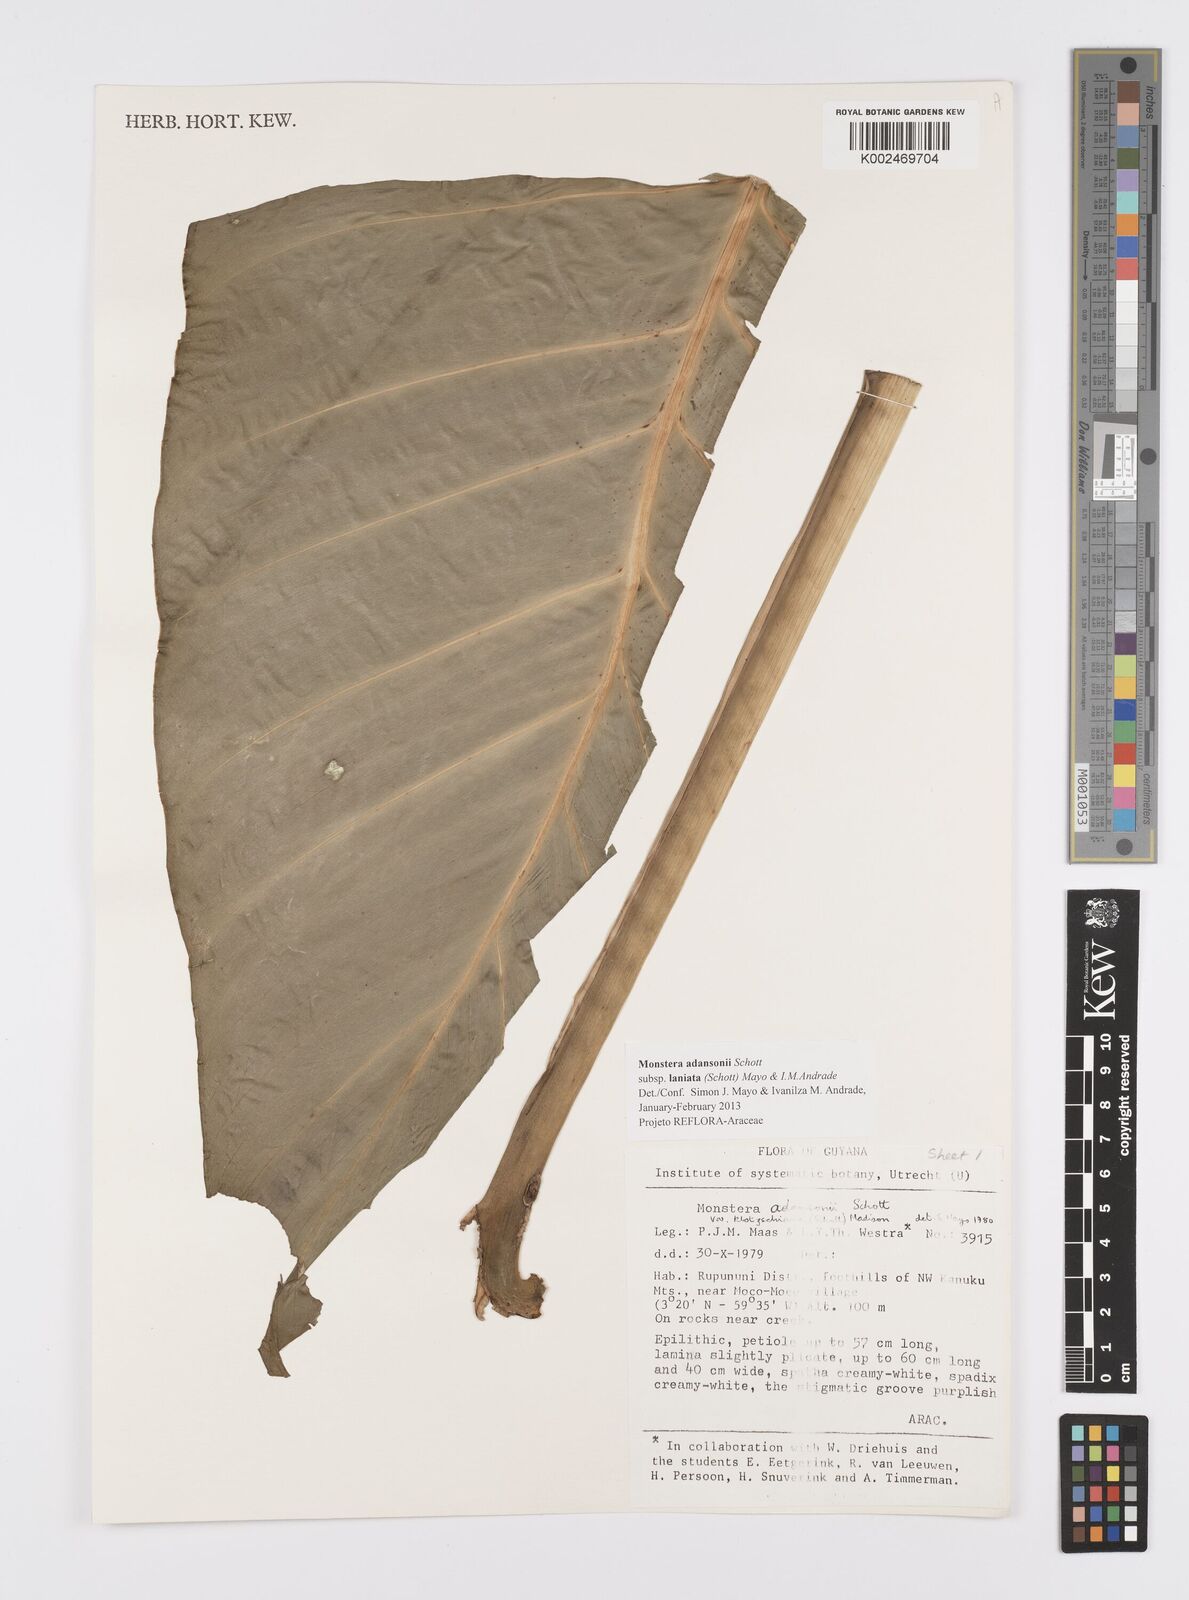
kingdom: Plantae
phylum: Tracheophyta
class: Liliopsida
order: Alismatales
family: Araceae
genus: Monstera
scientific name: Monstera adansonii
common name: Tarovine
